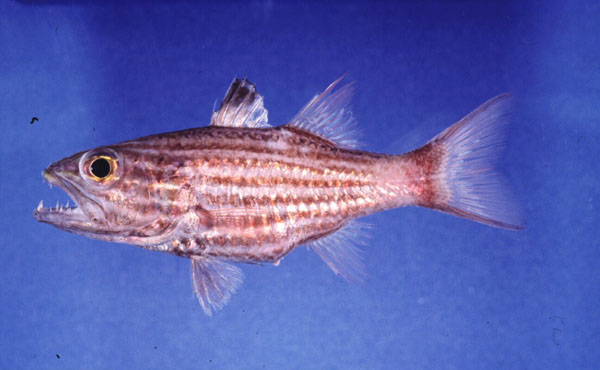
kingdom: Animalia
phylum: Chordata
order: Perciformes
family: Apogonidae
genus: Cheilodipterus
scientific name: Cheilodipterus macrodon
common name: Eight-lined cardinalfish
